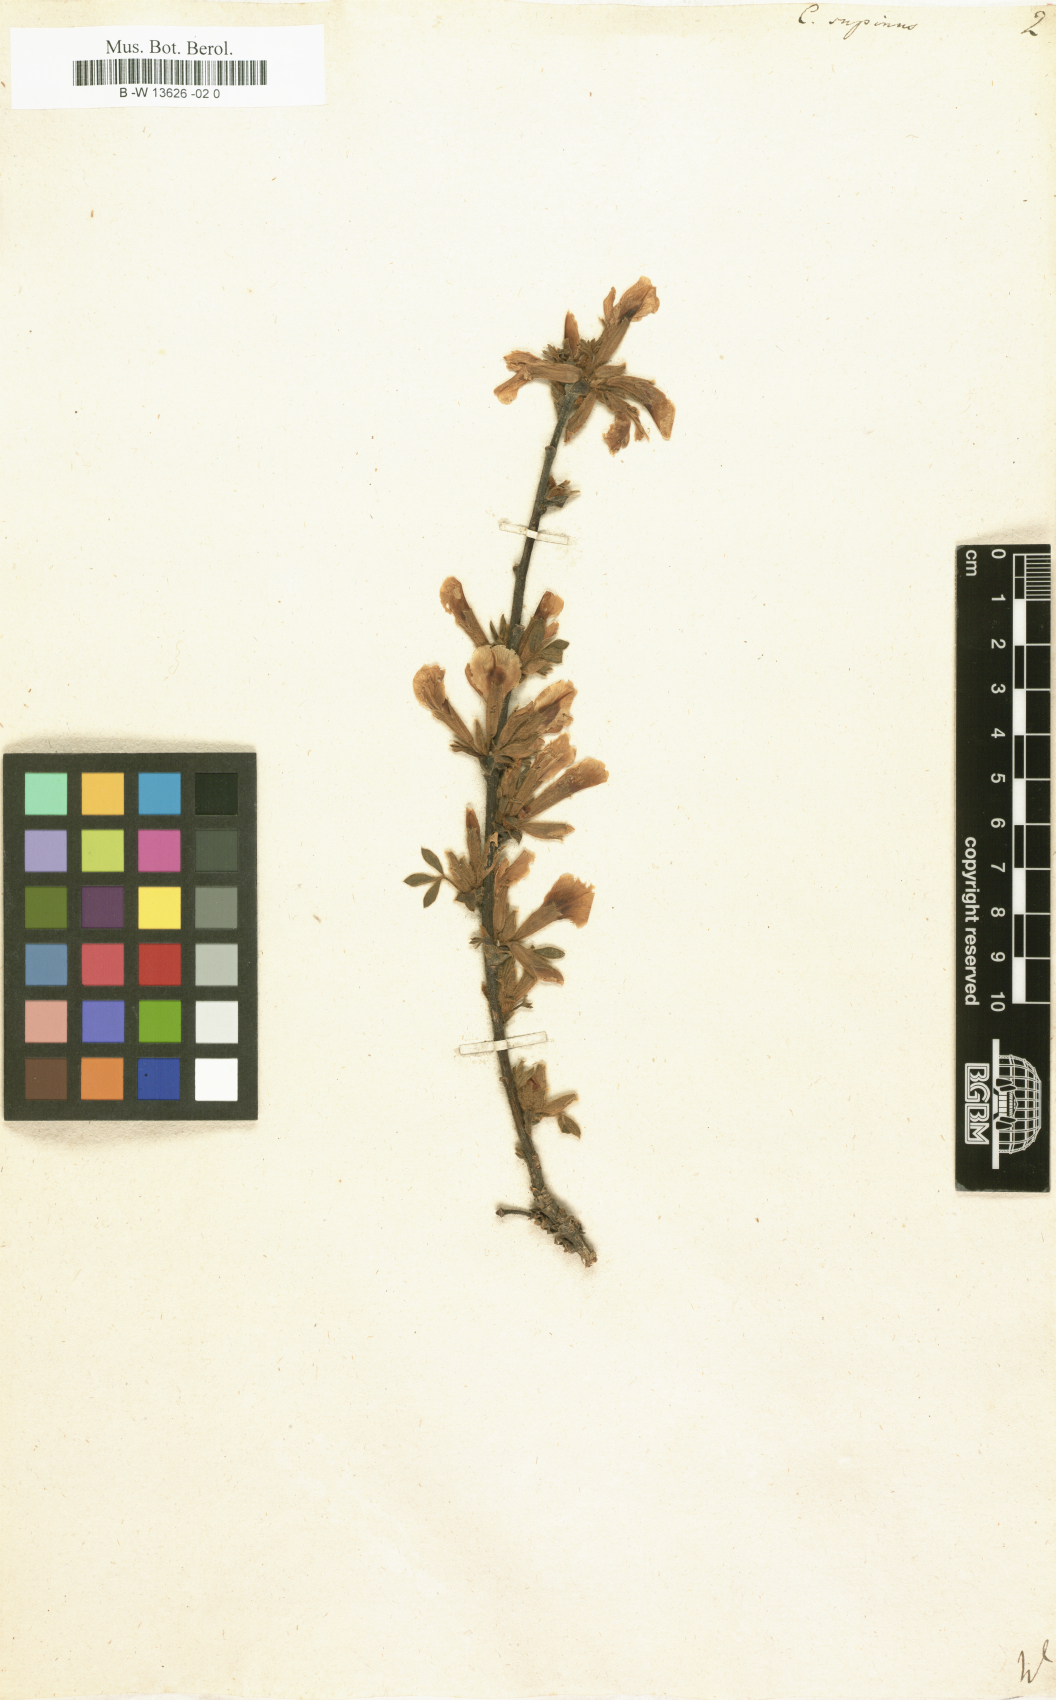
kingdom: Plantae
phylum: Tracheophyta
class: Magnoliopsida
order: Fabales
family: Fabaceae
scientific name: Fabaceae
